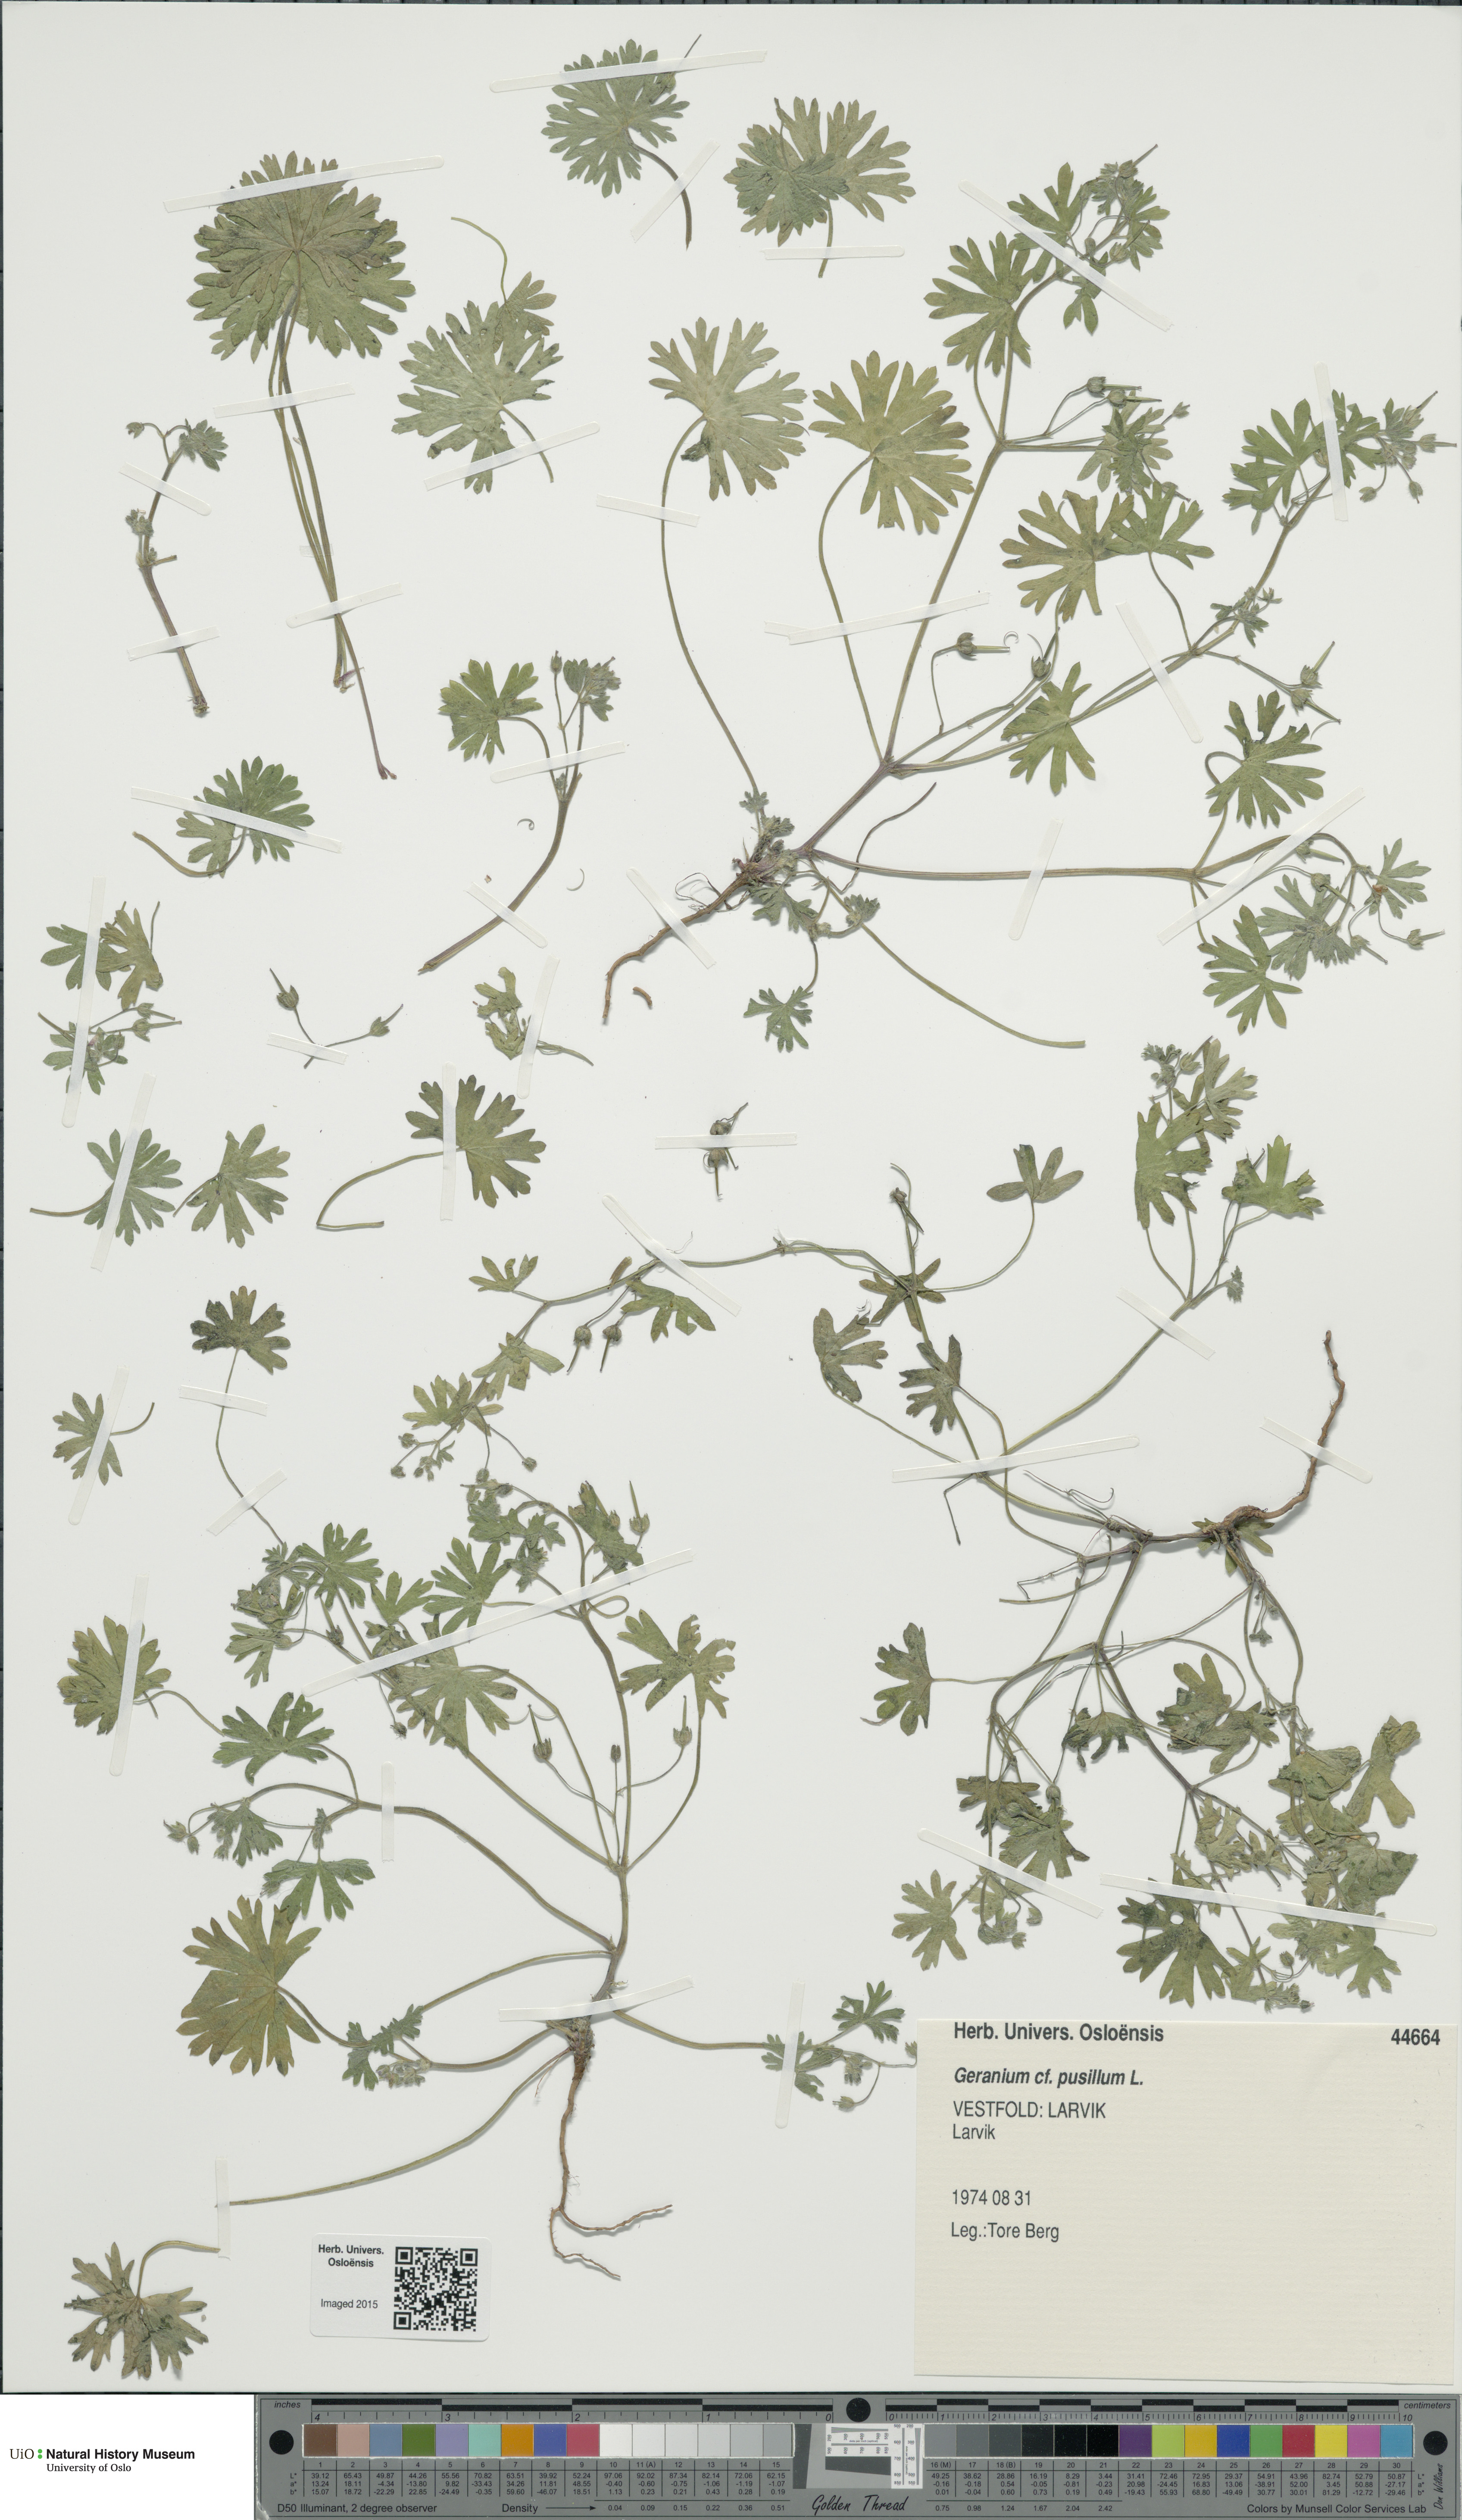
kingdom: Plantae
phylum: Tracheophyta
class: Magnoliopsida
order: Geraniales
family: Geraniaceae
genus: Geranium
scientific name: Geranium pusillum
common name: Small geranium
